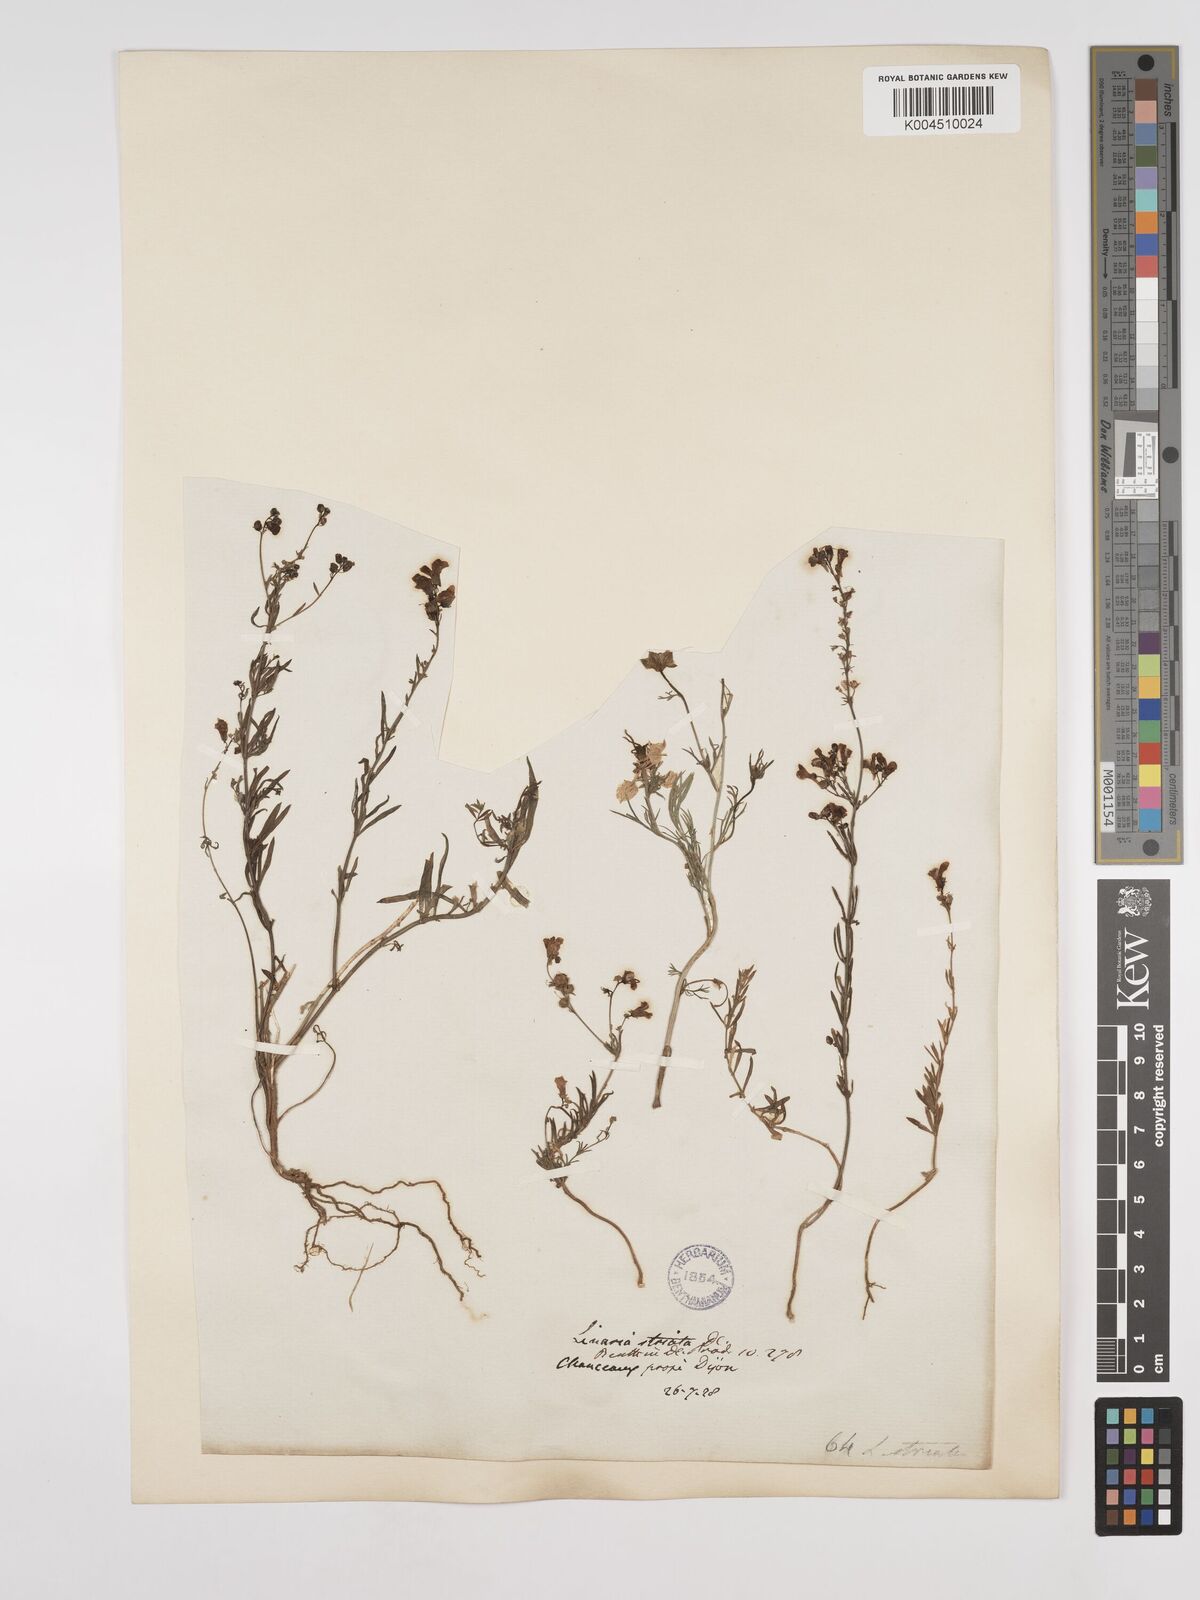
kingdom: Plantae
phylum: Tracheophyta
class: Magnoliopsida
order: Lamiales
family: Plantaginaceae
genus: Linaria
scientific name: Linaria repens
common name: Pale toadflax
